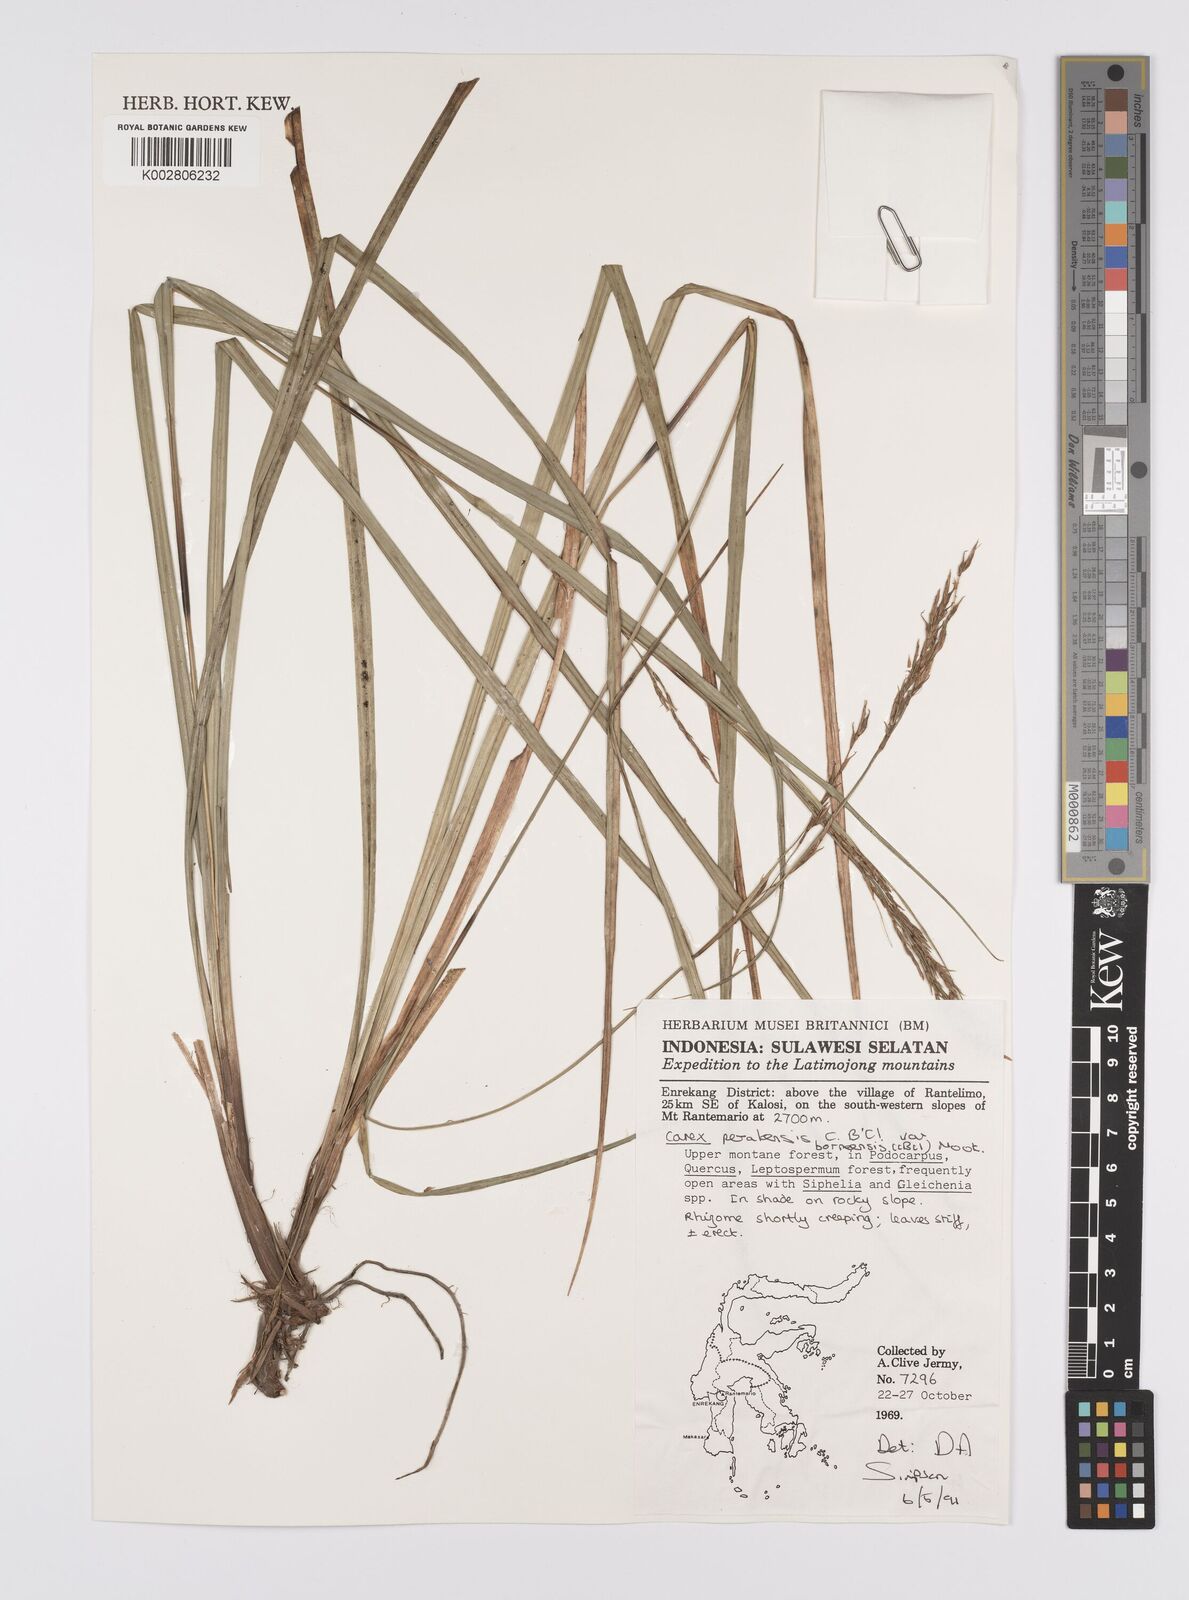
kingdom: Plantae
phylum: Tracheophyta
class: Liliopsida
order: Poales
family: Cyperaceae
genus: Carex
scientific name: Carex perakensis
